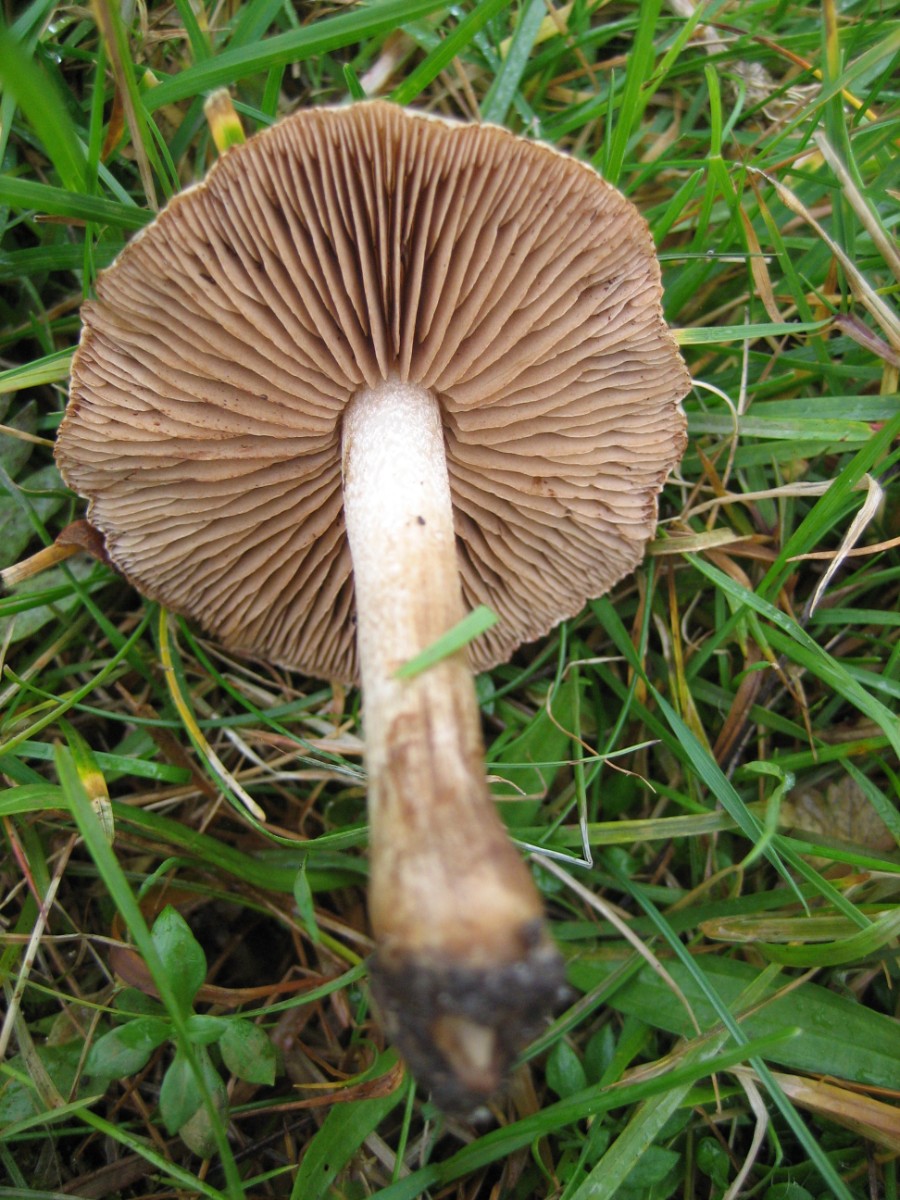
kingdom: Fungi
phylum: Basidiomycota
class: Agaricomycetes
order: Agaricales
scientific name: Agaricales
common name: champignonordenen
